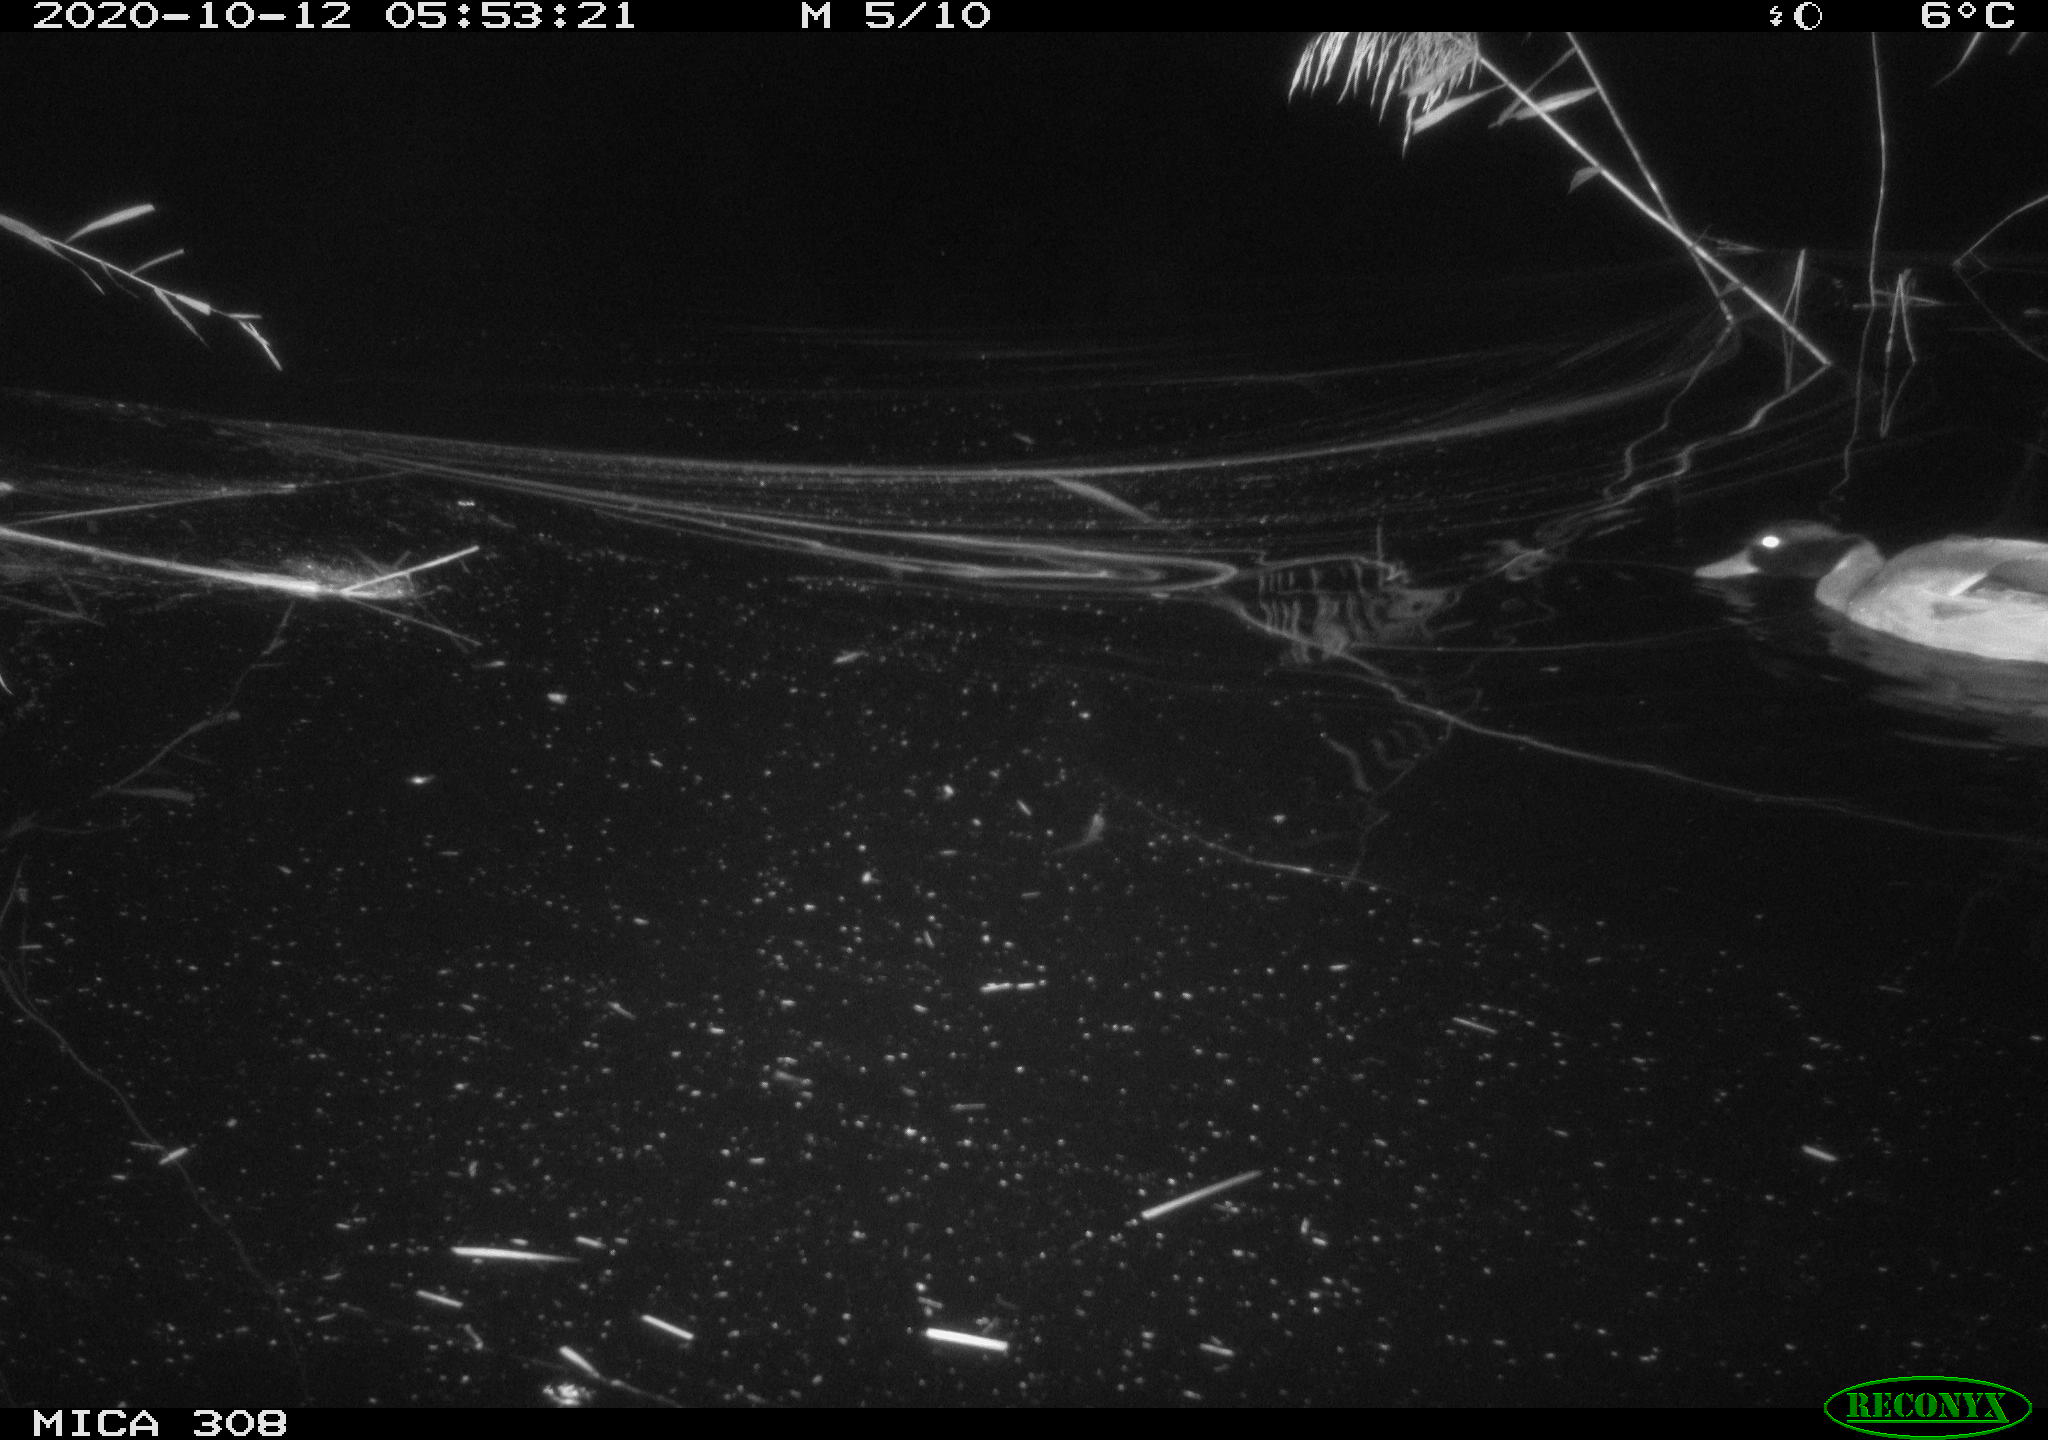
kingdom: Animalia
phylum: Chordata
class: Aves
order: Anseriformes
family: Anatidae
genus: Anas
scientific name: Anas platyrhynchos
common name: Mallard
